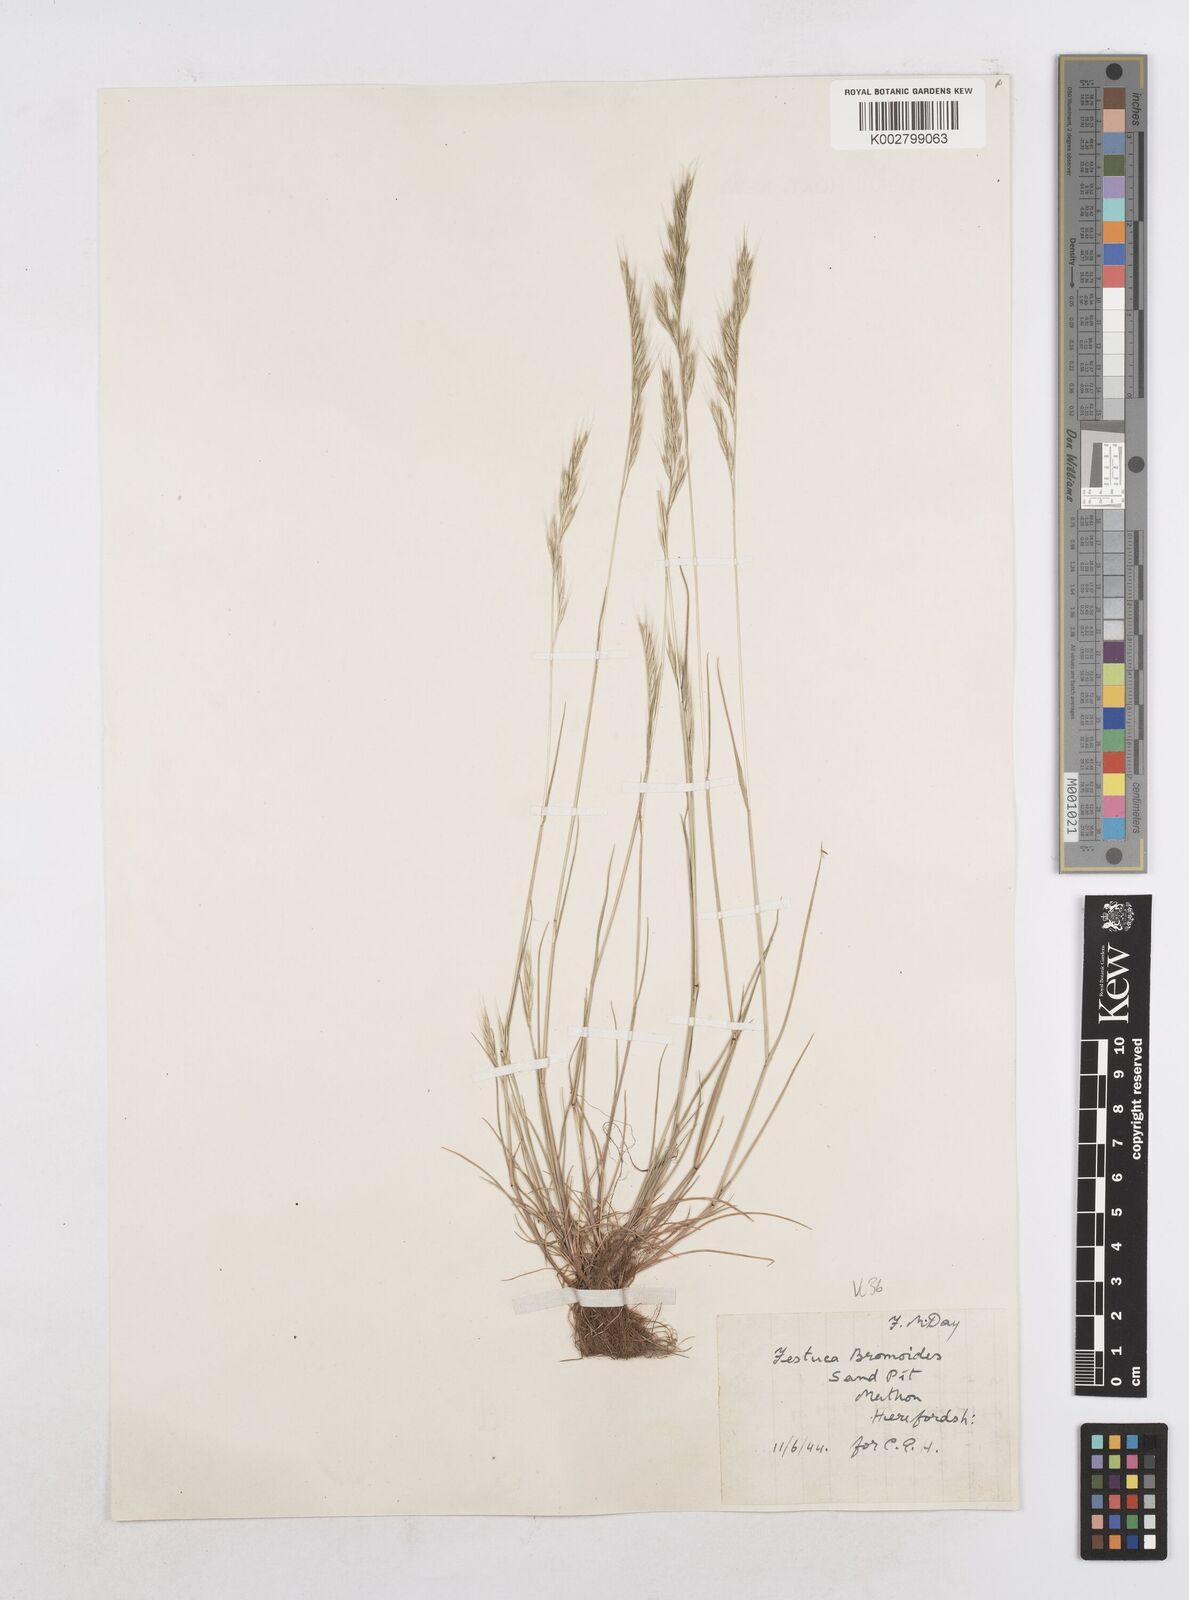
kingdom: Plantae
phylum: Tracheophyta
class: Liliopsida
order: Poales
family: Poaceae
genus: Festuca
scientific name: Festuca bromoides
